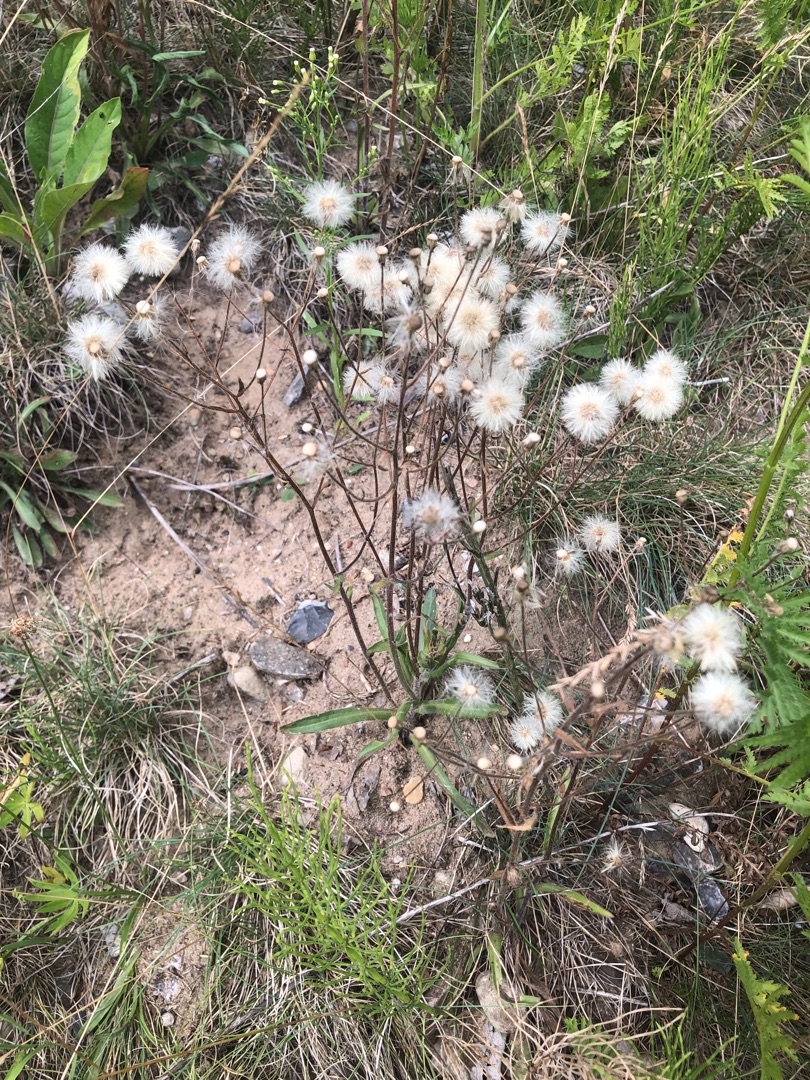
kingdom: Plantae
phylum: Tracheophyta
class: Magnoliopsida
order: Asterales
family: Asteraceae
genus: Erigeron
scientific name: Erigeron acris
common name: Bitter bakkestjerne
